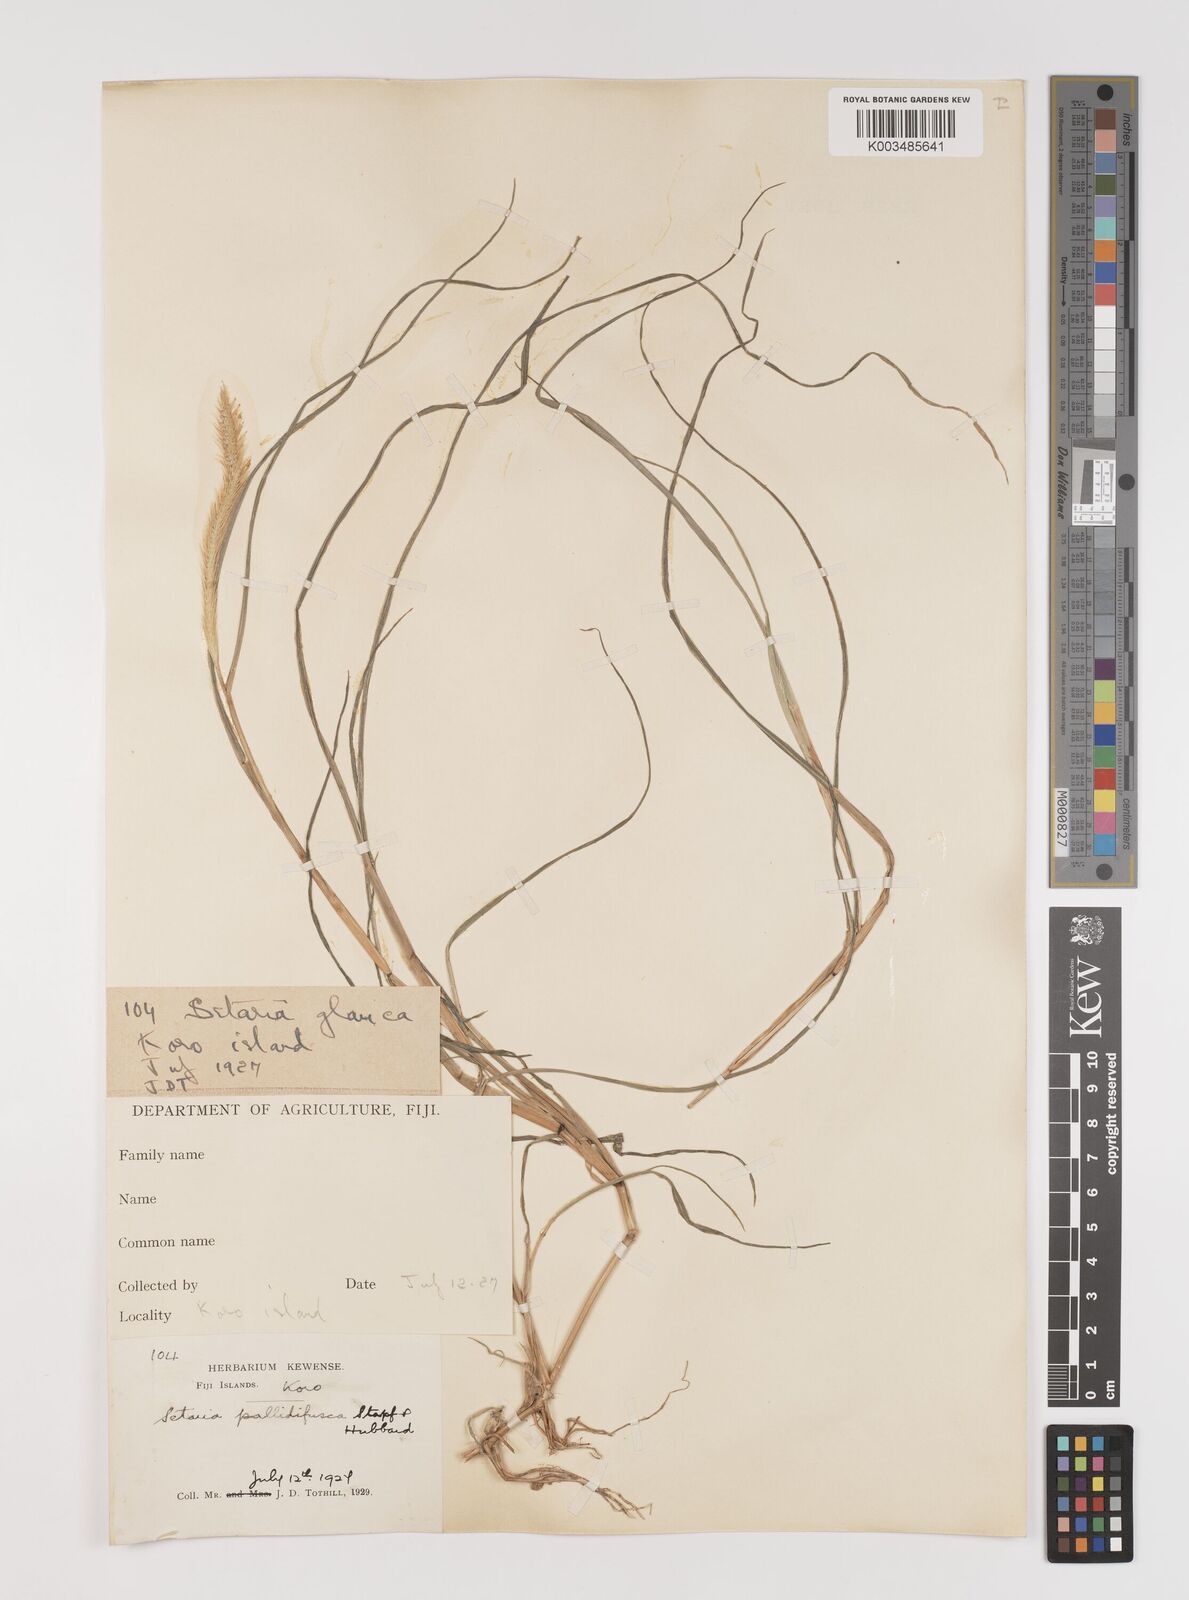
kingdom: Plantae
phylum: Tracheophyta
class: Liliopsida
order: Poales
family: Poaceae
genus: Setaria
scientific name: Setaria pumila
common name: Yellow bristle-grass
